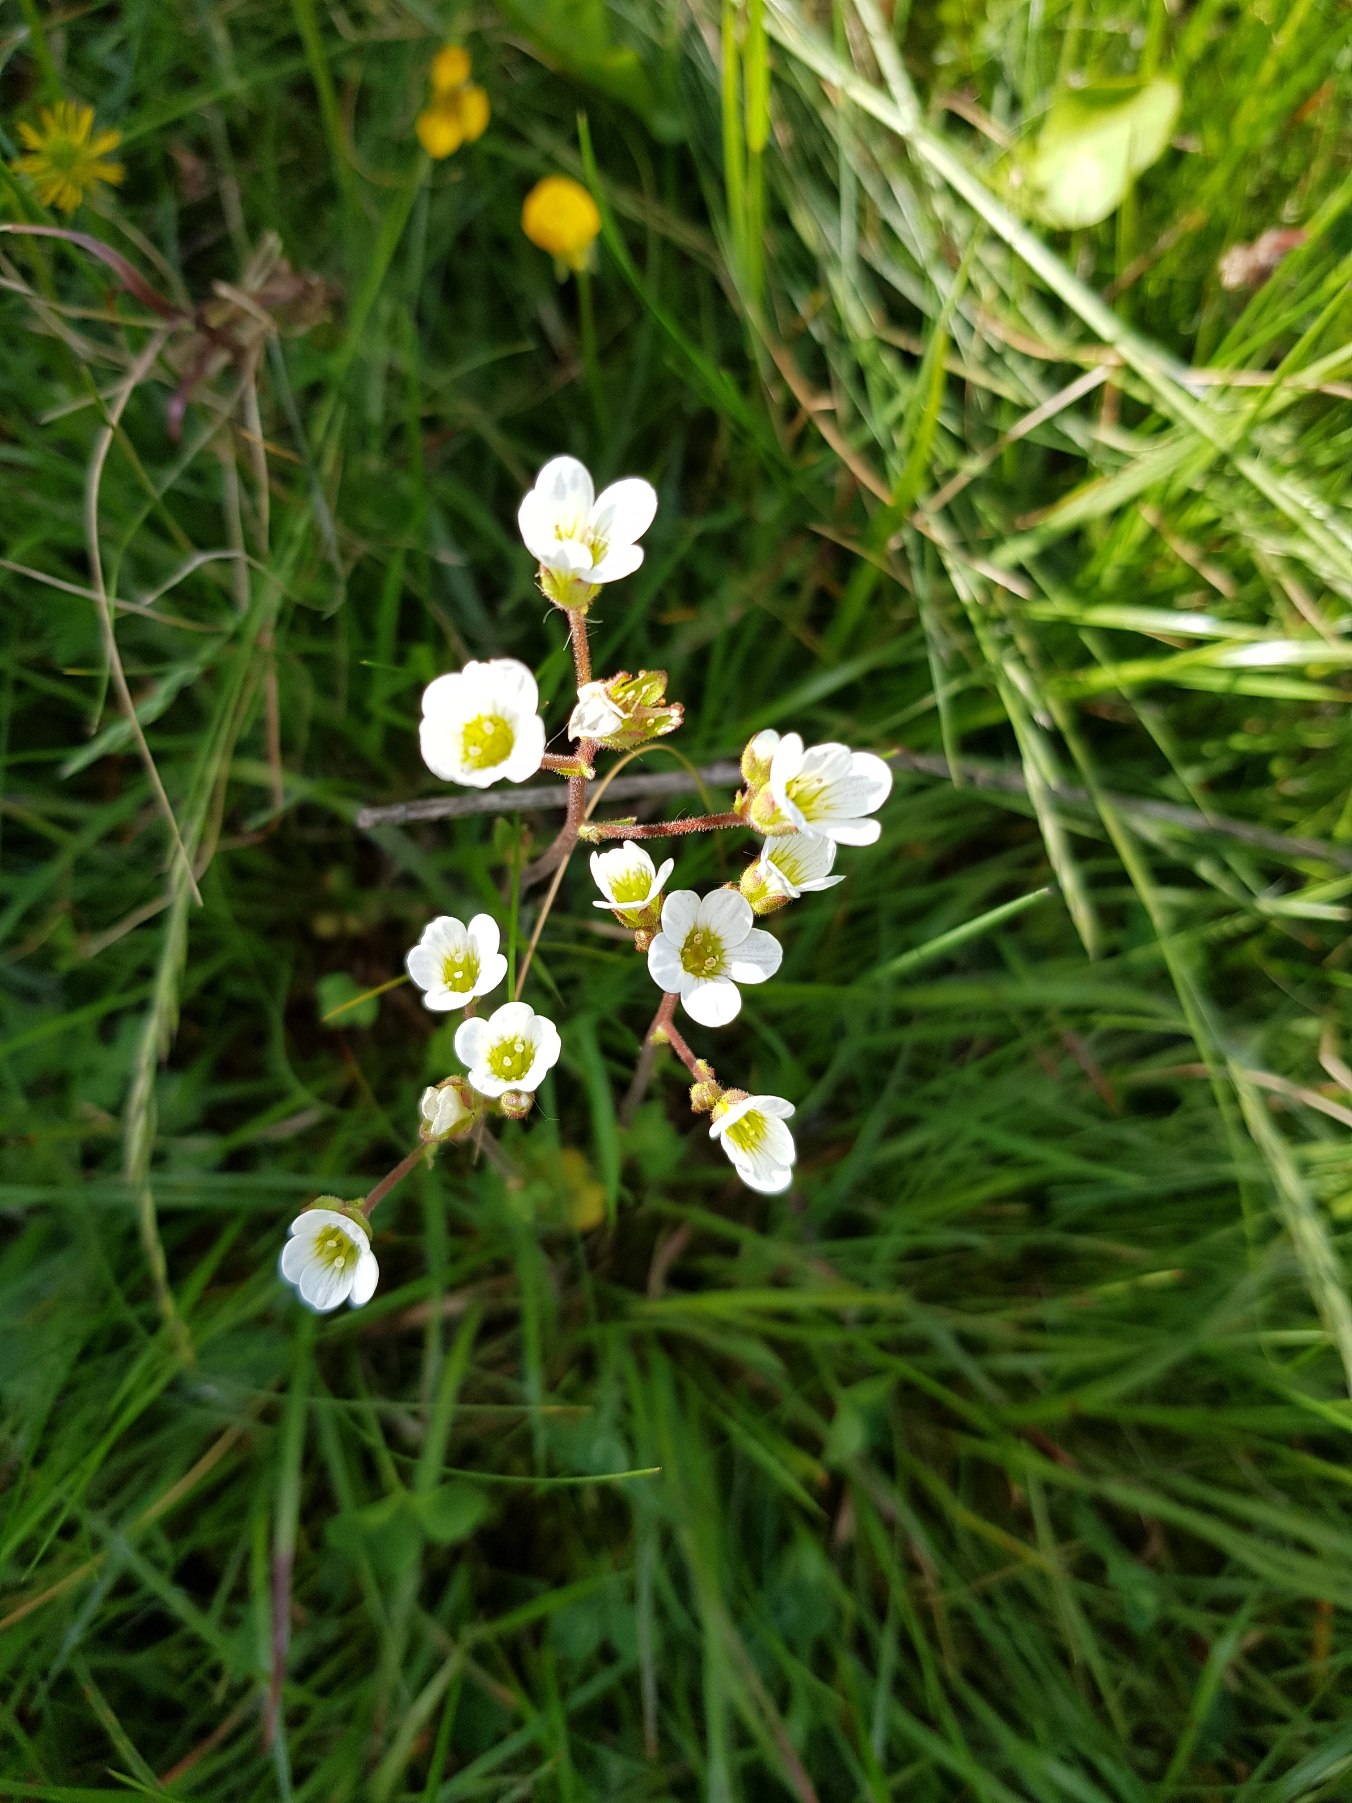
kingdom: Plantae
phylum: Tracheophyta
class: Magnoliopsida
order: Saxifragales
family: Saxifragaceae
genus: Saxifraga
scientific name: Saxifraga granulata
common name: Kornet stenbræk
